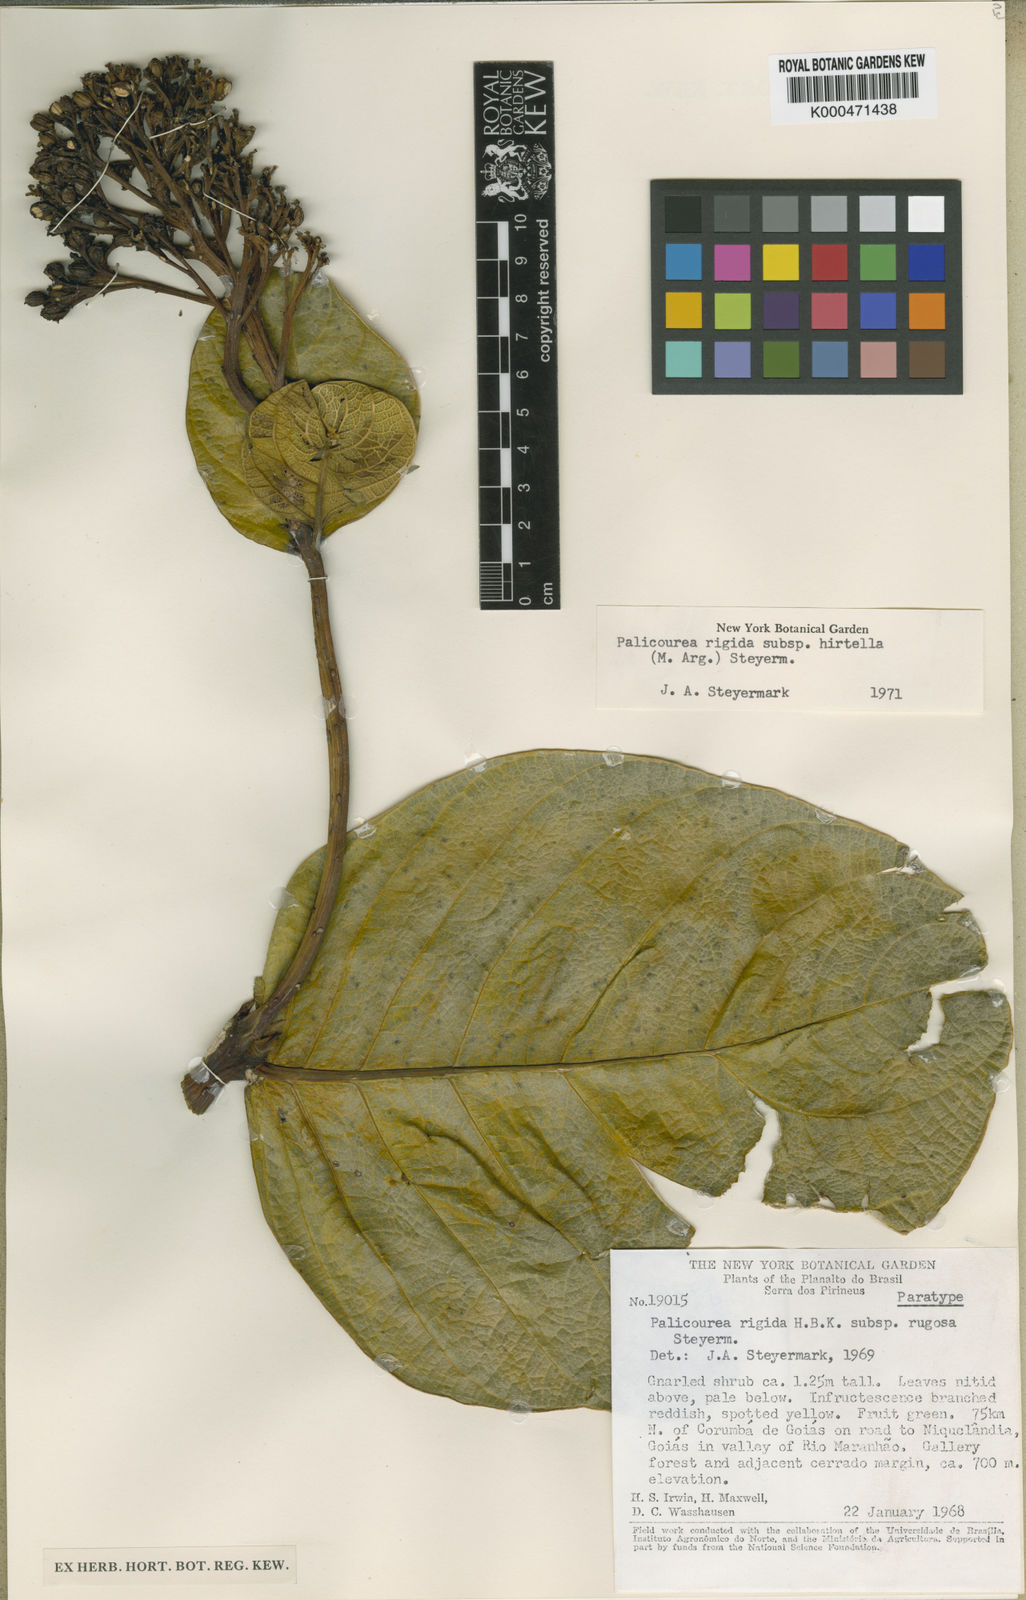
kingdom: Plantae
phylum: Tracheophyta
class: Magnoliopsida
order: Gentianales
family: Rubiaceae
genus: Palicourea
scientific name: Palicourea rigida
